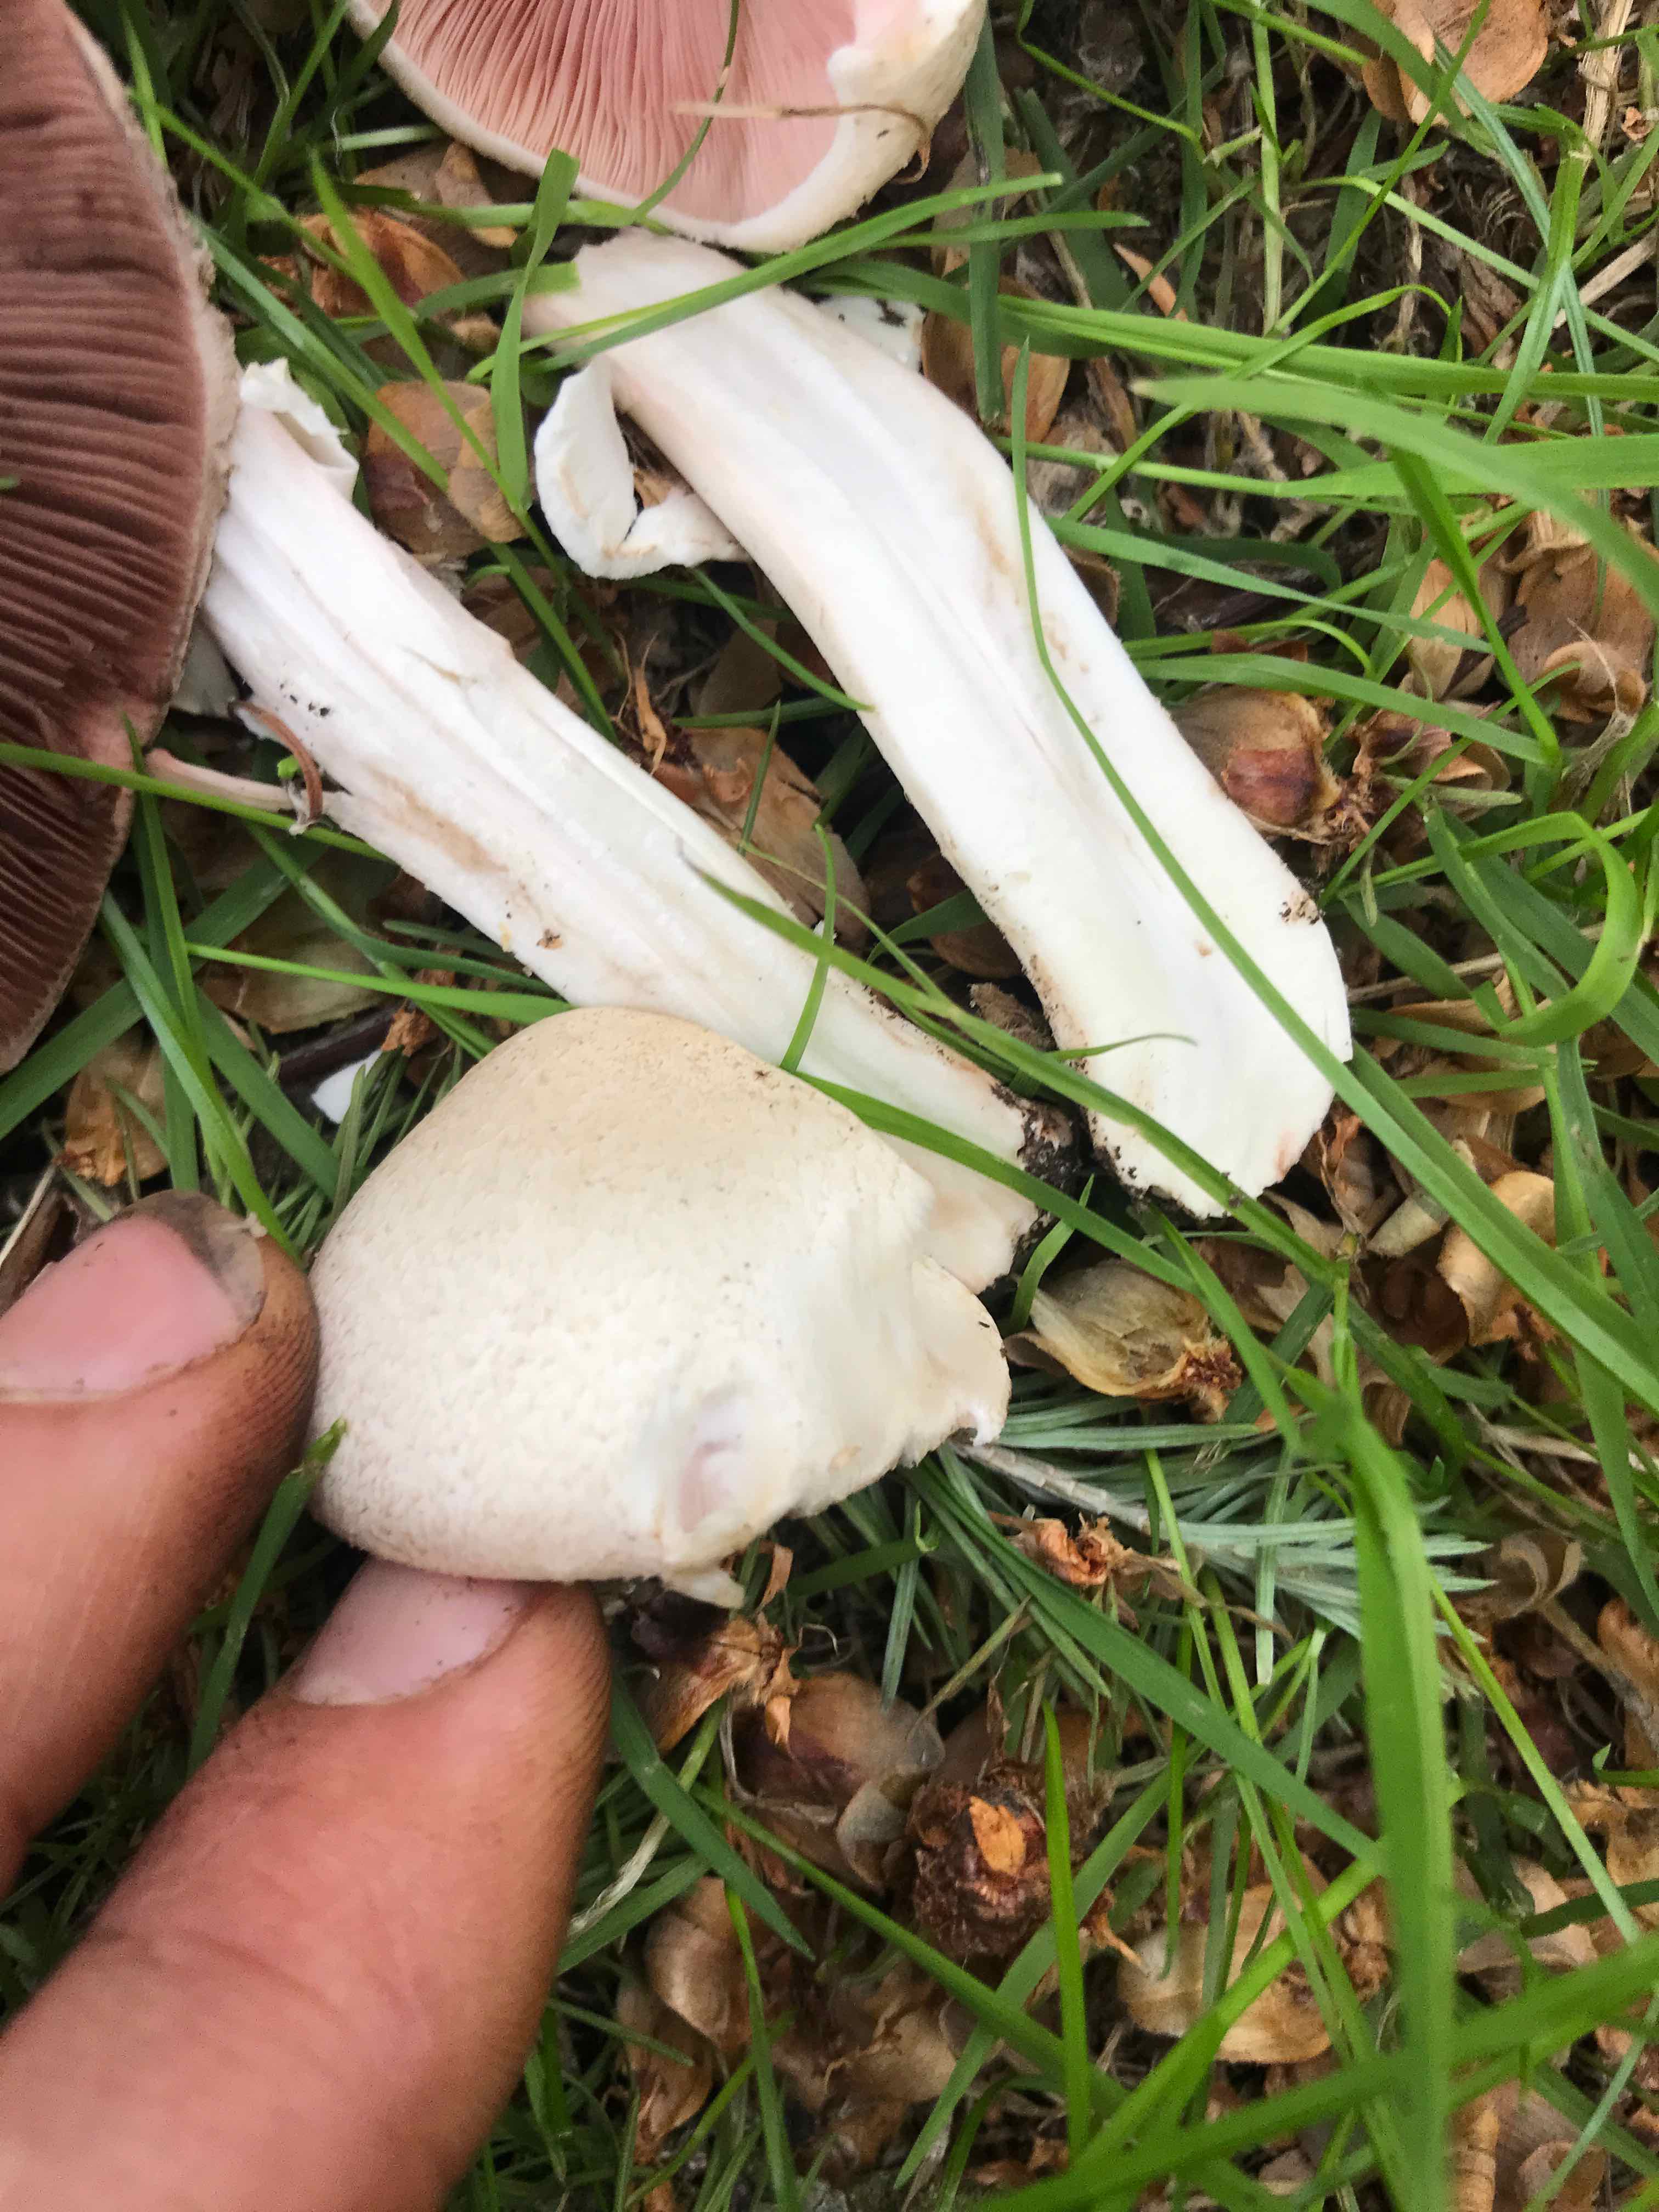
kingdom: Fungi
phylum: Basidiomycota
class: Agaricomycetes
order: Agaricales
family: Agaricaceae
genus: Agaricus
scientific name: Agaricus campestris
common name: mark-champignon
